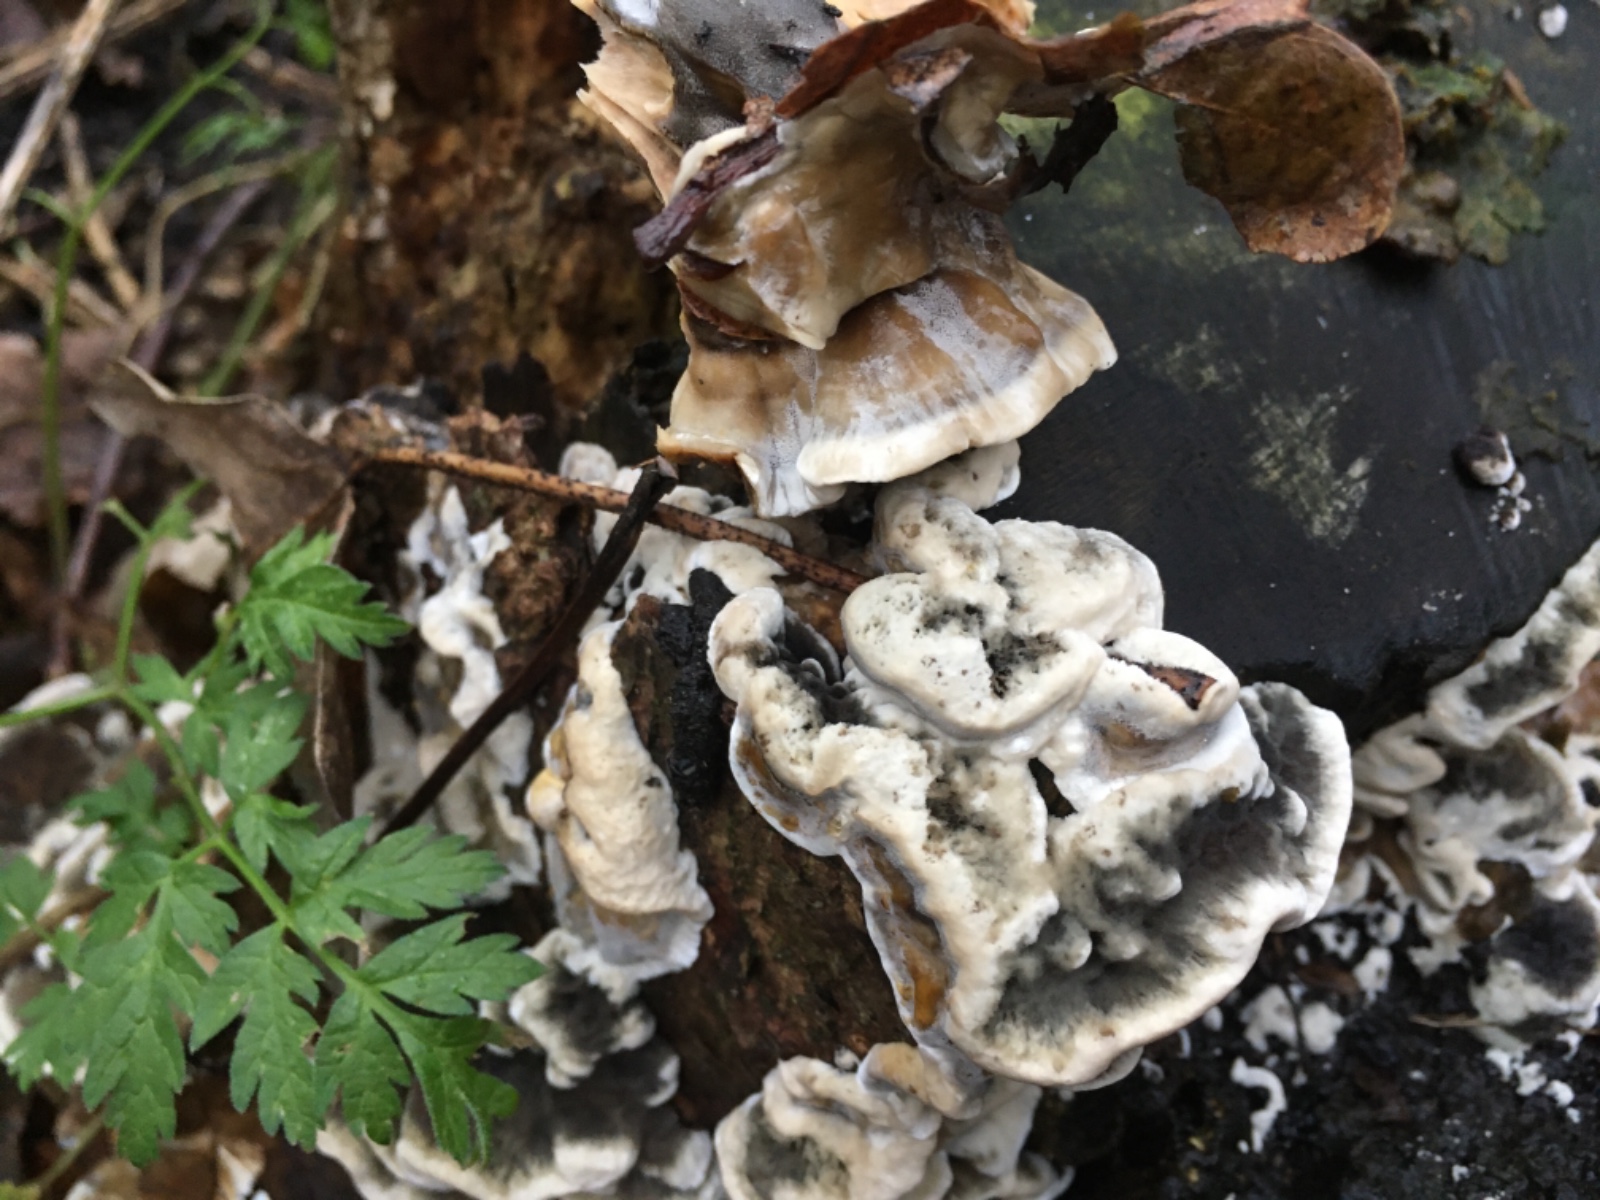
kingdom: Fungi
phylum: Basidiomycota
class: Agaricomycetes
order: Polyporales
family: Phanerochaetaceae
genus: Bjerkandera
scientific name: Bjerkandera adusta
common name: sveden sodporesvamp
